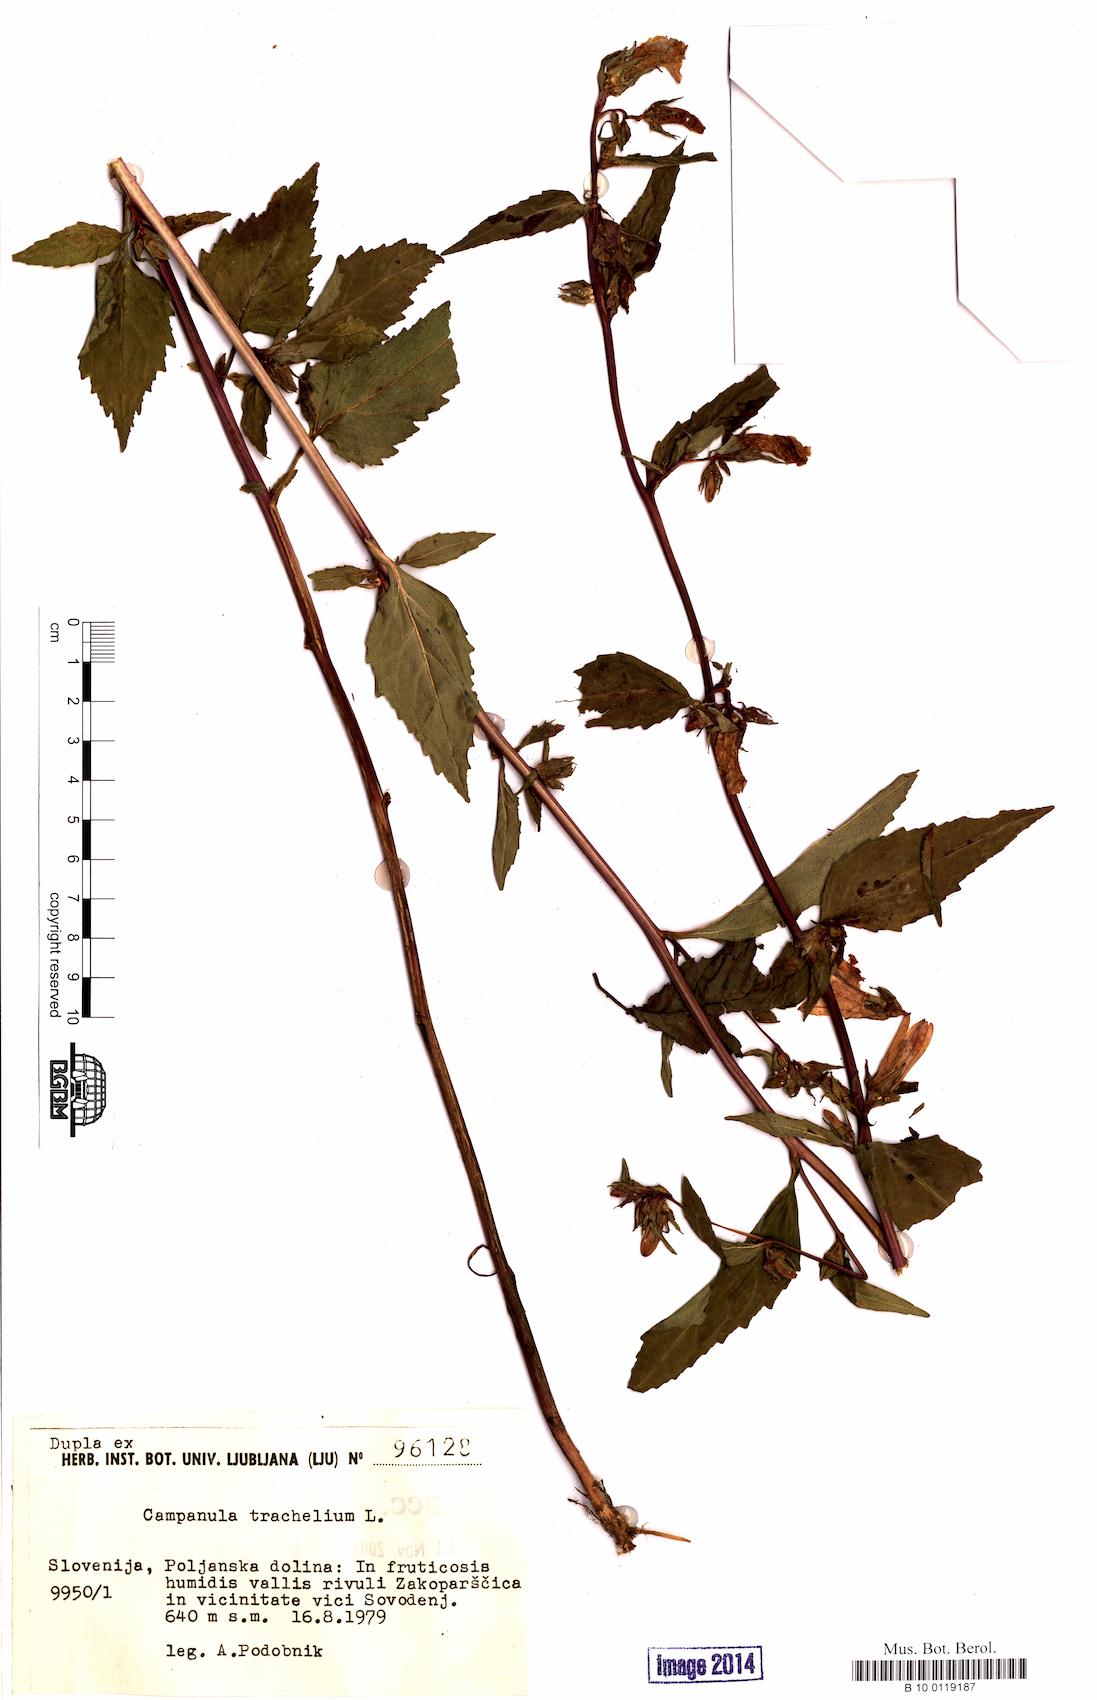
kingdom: Plantae
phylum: Tracheophyta
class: Magnoliopsida
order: Asterales
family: Campanulaceae
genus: Campanula
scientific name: Campanula trachelium
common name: Nettle-leaved bellflower
